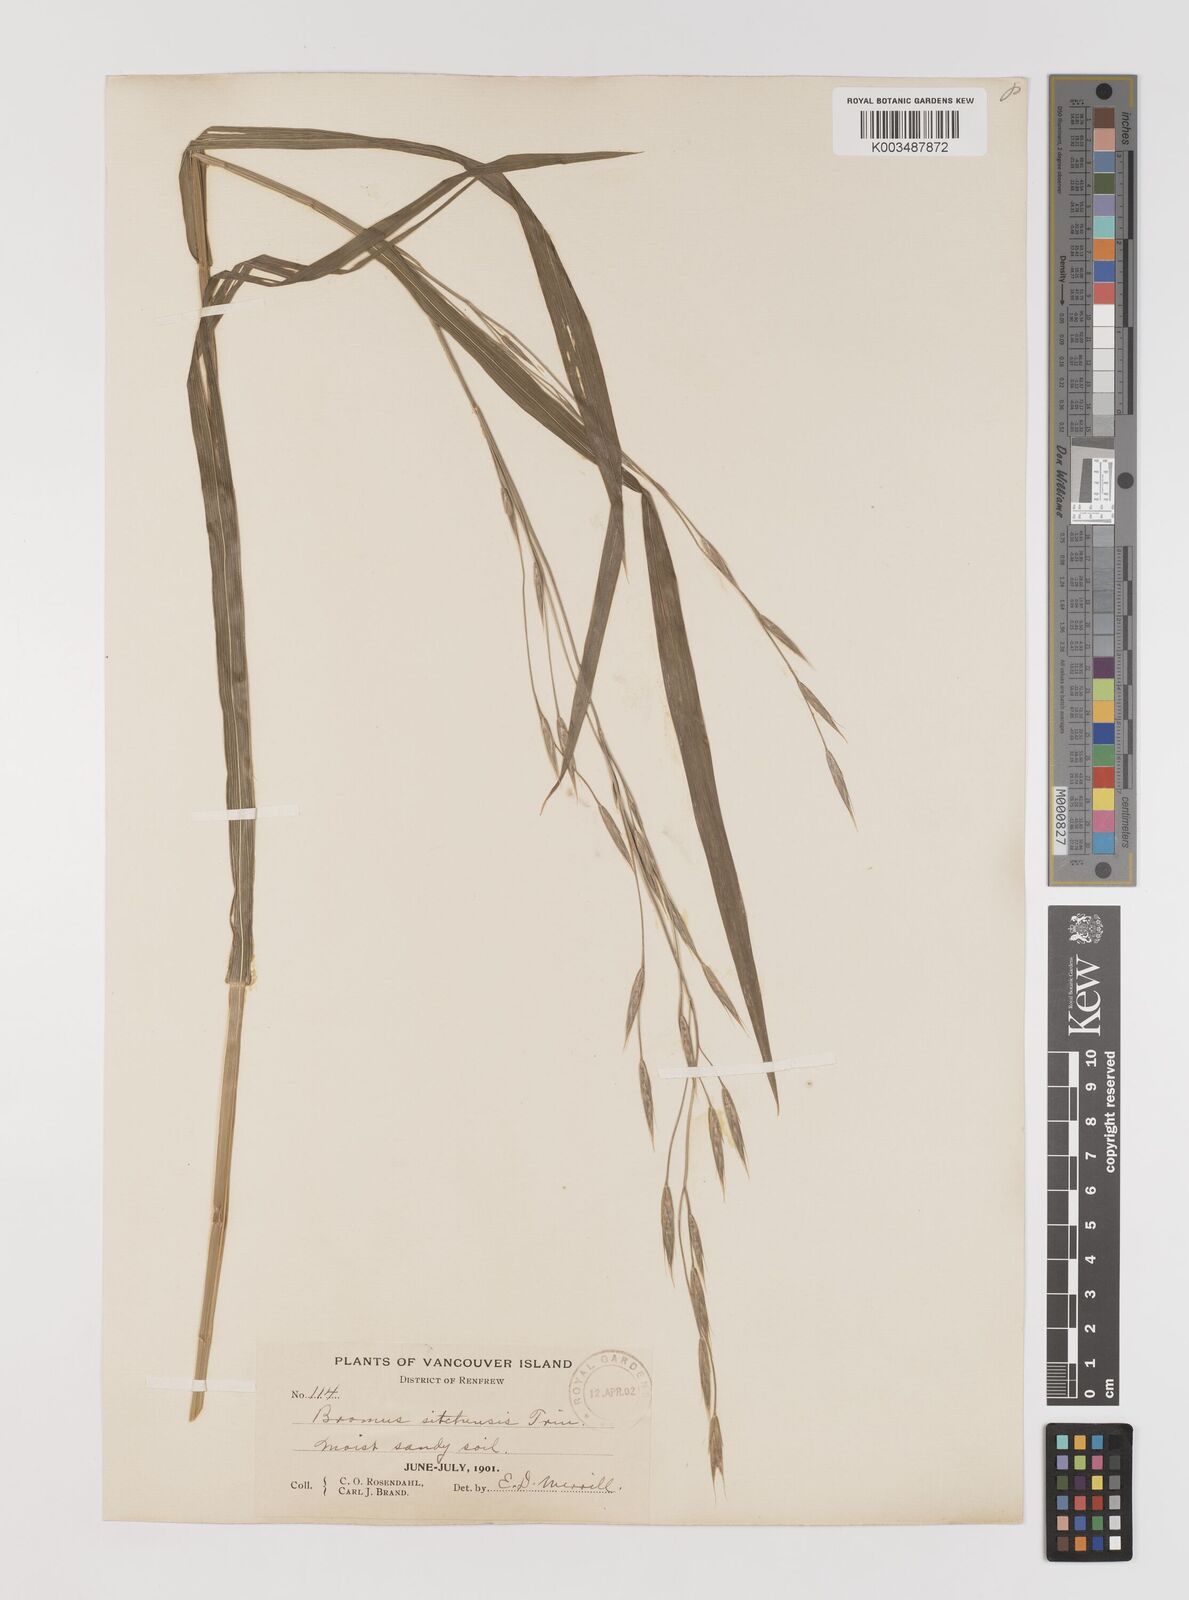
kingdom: Plantae
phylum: Tracheophyta
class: Liliopsida
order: Poales
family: Poaceae
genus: Bromus
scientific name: Bromus sitchensis
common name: Sitka brome
